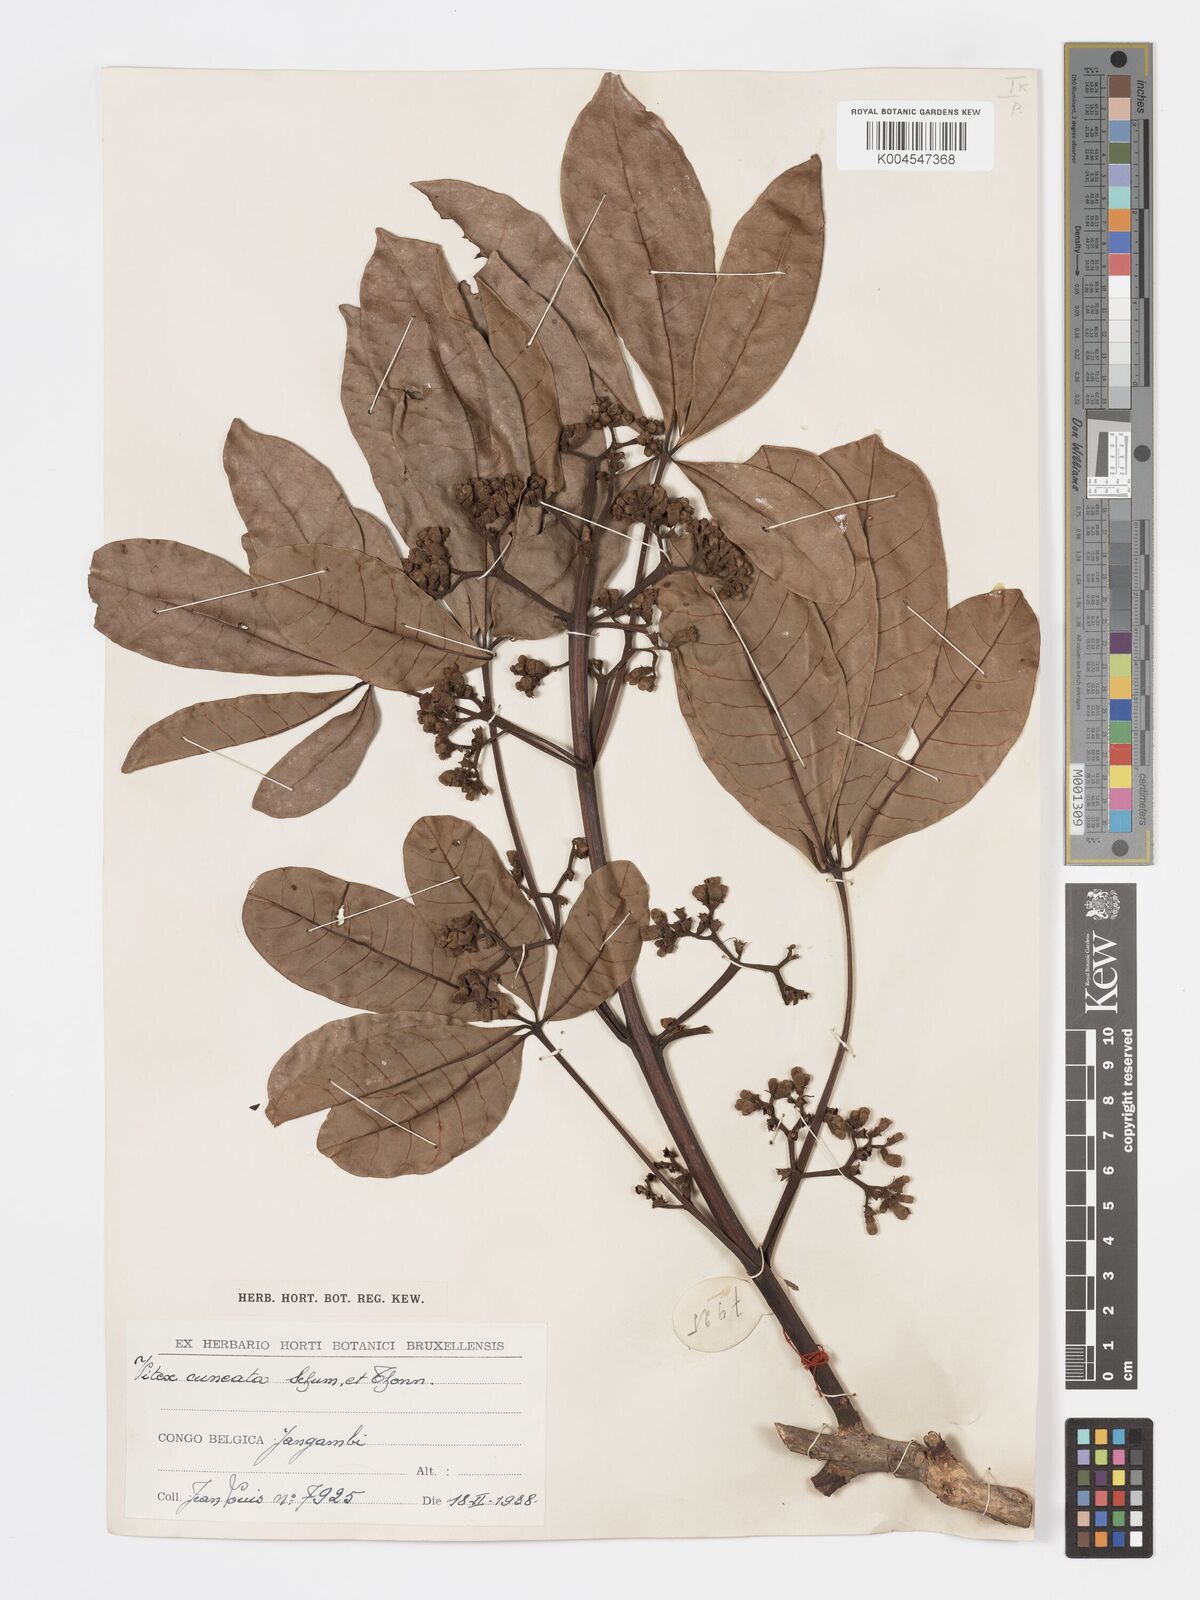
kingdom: Plantae
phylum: Tracheophyta
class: Magnoliopsida
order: Lamiales
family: Lamiaceae
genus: Vitex
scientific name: Vitex doniana
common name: Black plum
